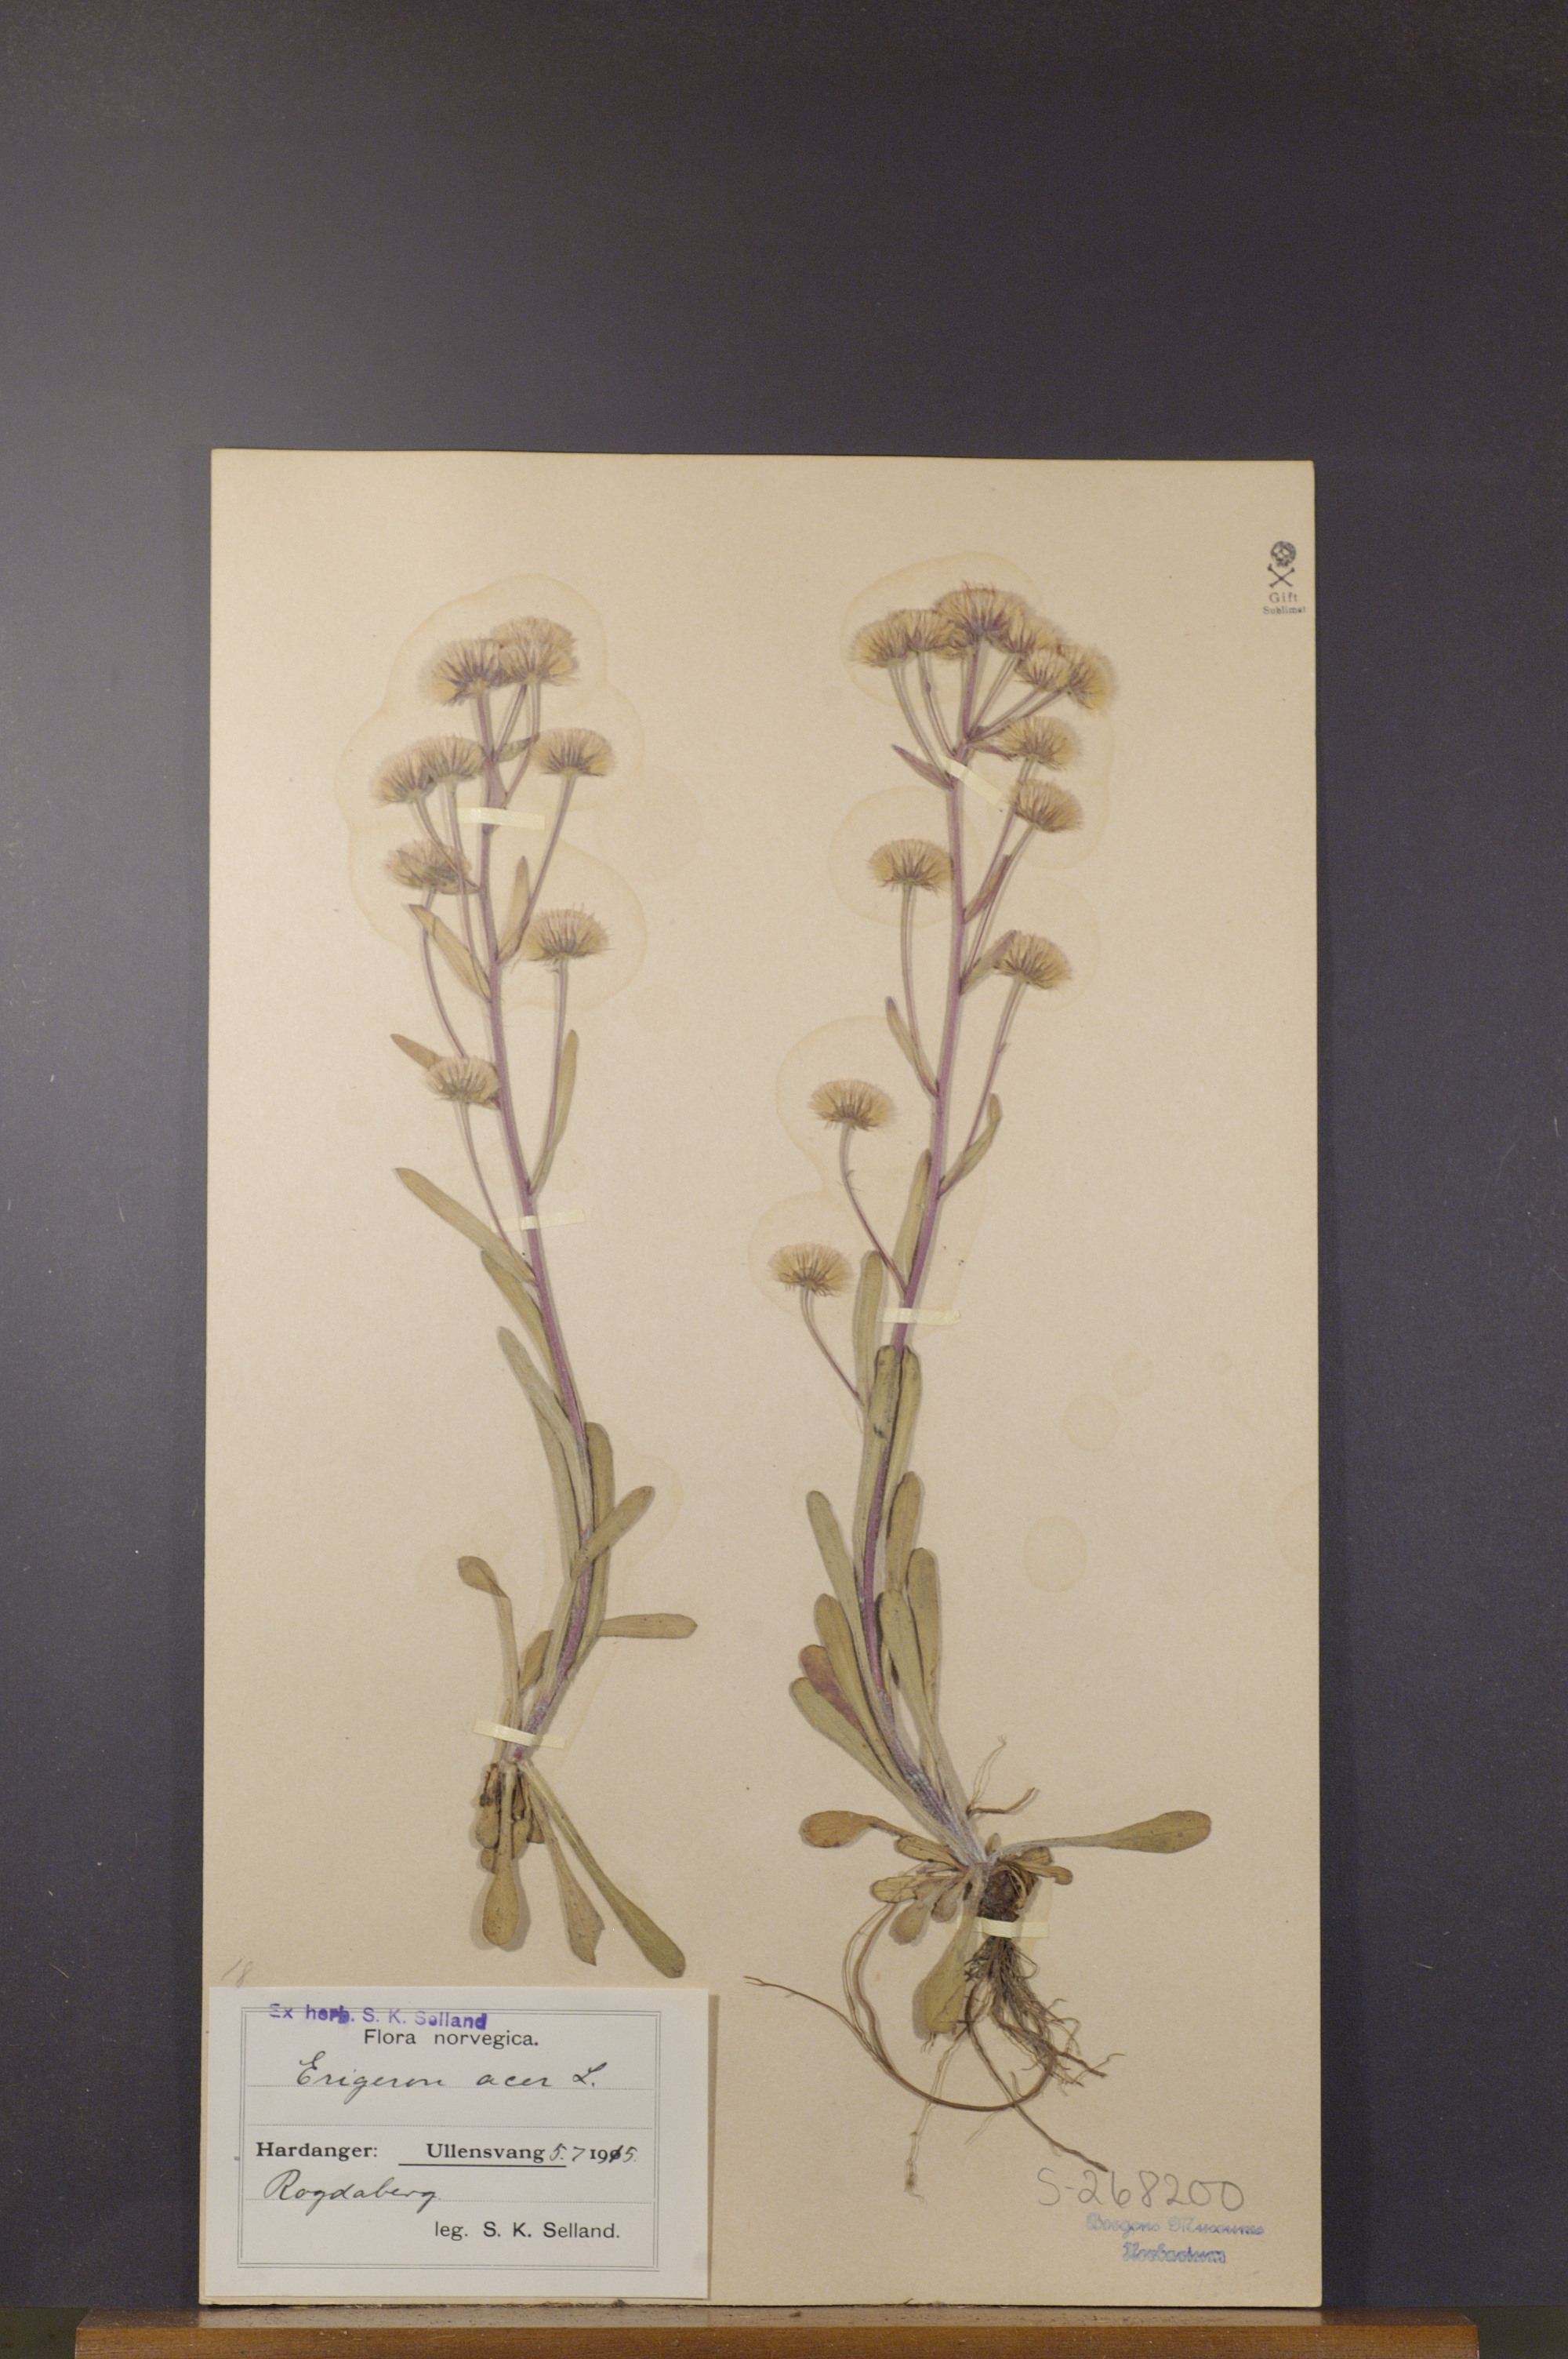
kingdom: Plantae
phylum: Tracheophyta
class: Magnoliopsida
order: Asterales
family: Asteraceae
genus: Erigeron
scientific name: Erigeron acris
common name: Blue fleabane
